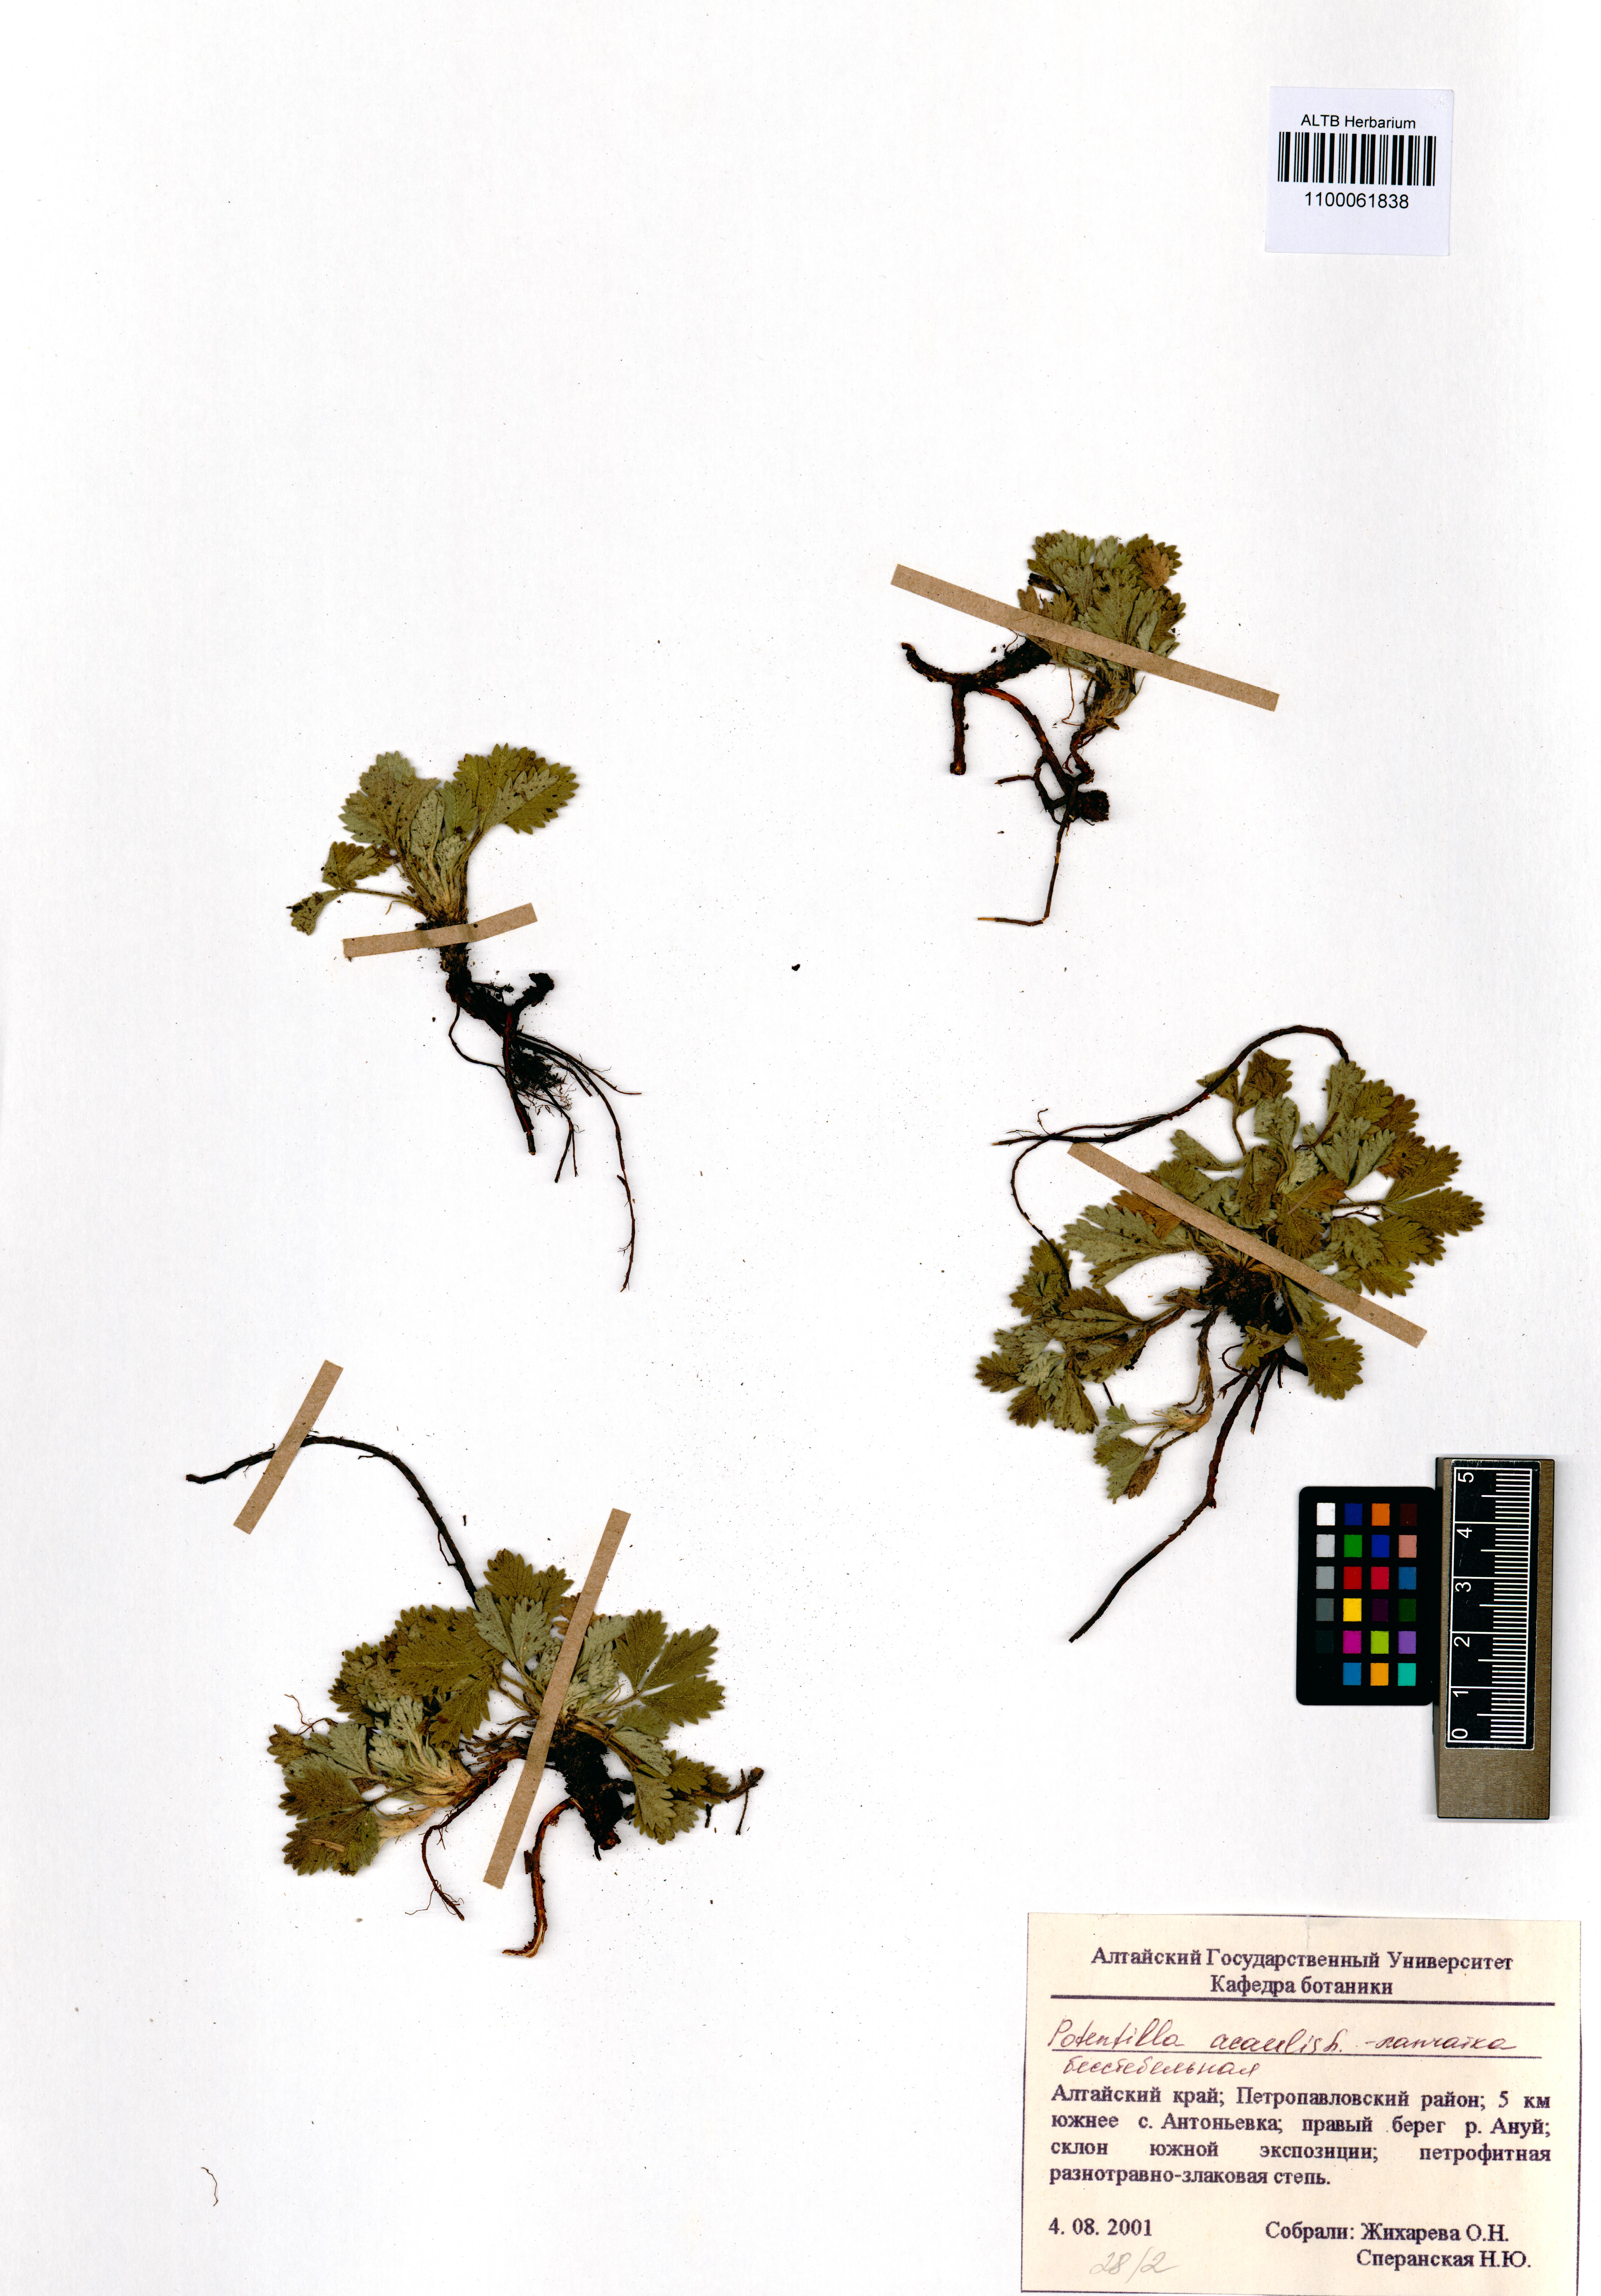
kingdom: Plantae
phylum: Tracheophyta
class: Magnoliopsida
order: Rosales
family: Rosaceae
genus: Potentilla
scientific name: Potentilla acaulis
